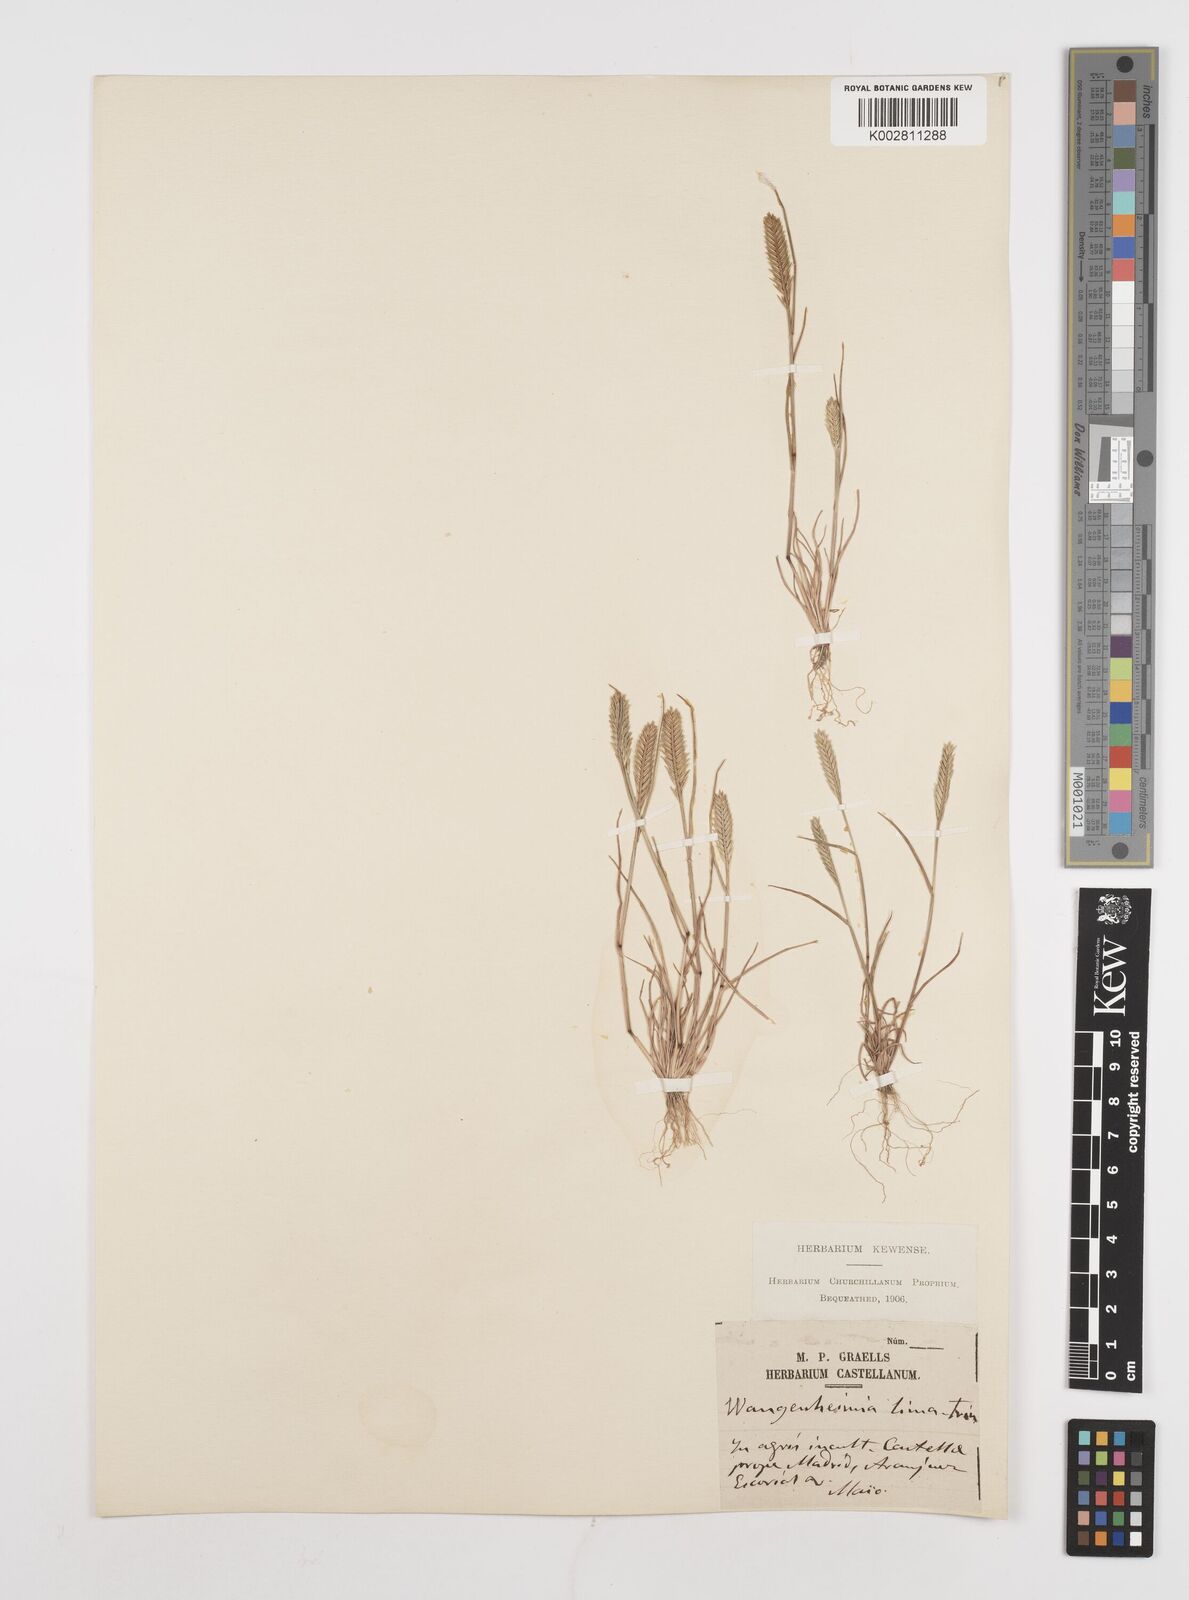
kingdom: Plantae
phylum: Tracheophyta
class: Liliopsida
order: Poales
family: Poaceae
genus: Wangenheimia
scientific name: Wangenheimia lima
